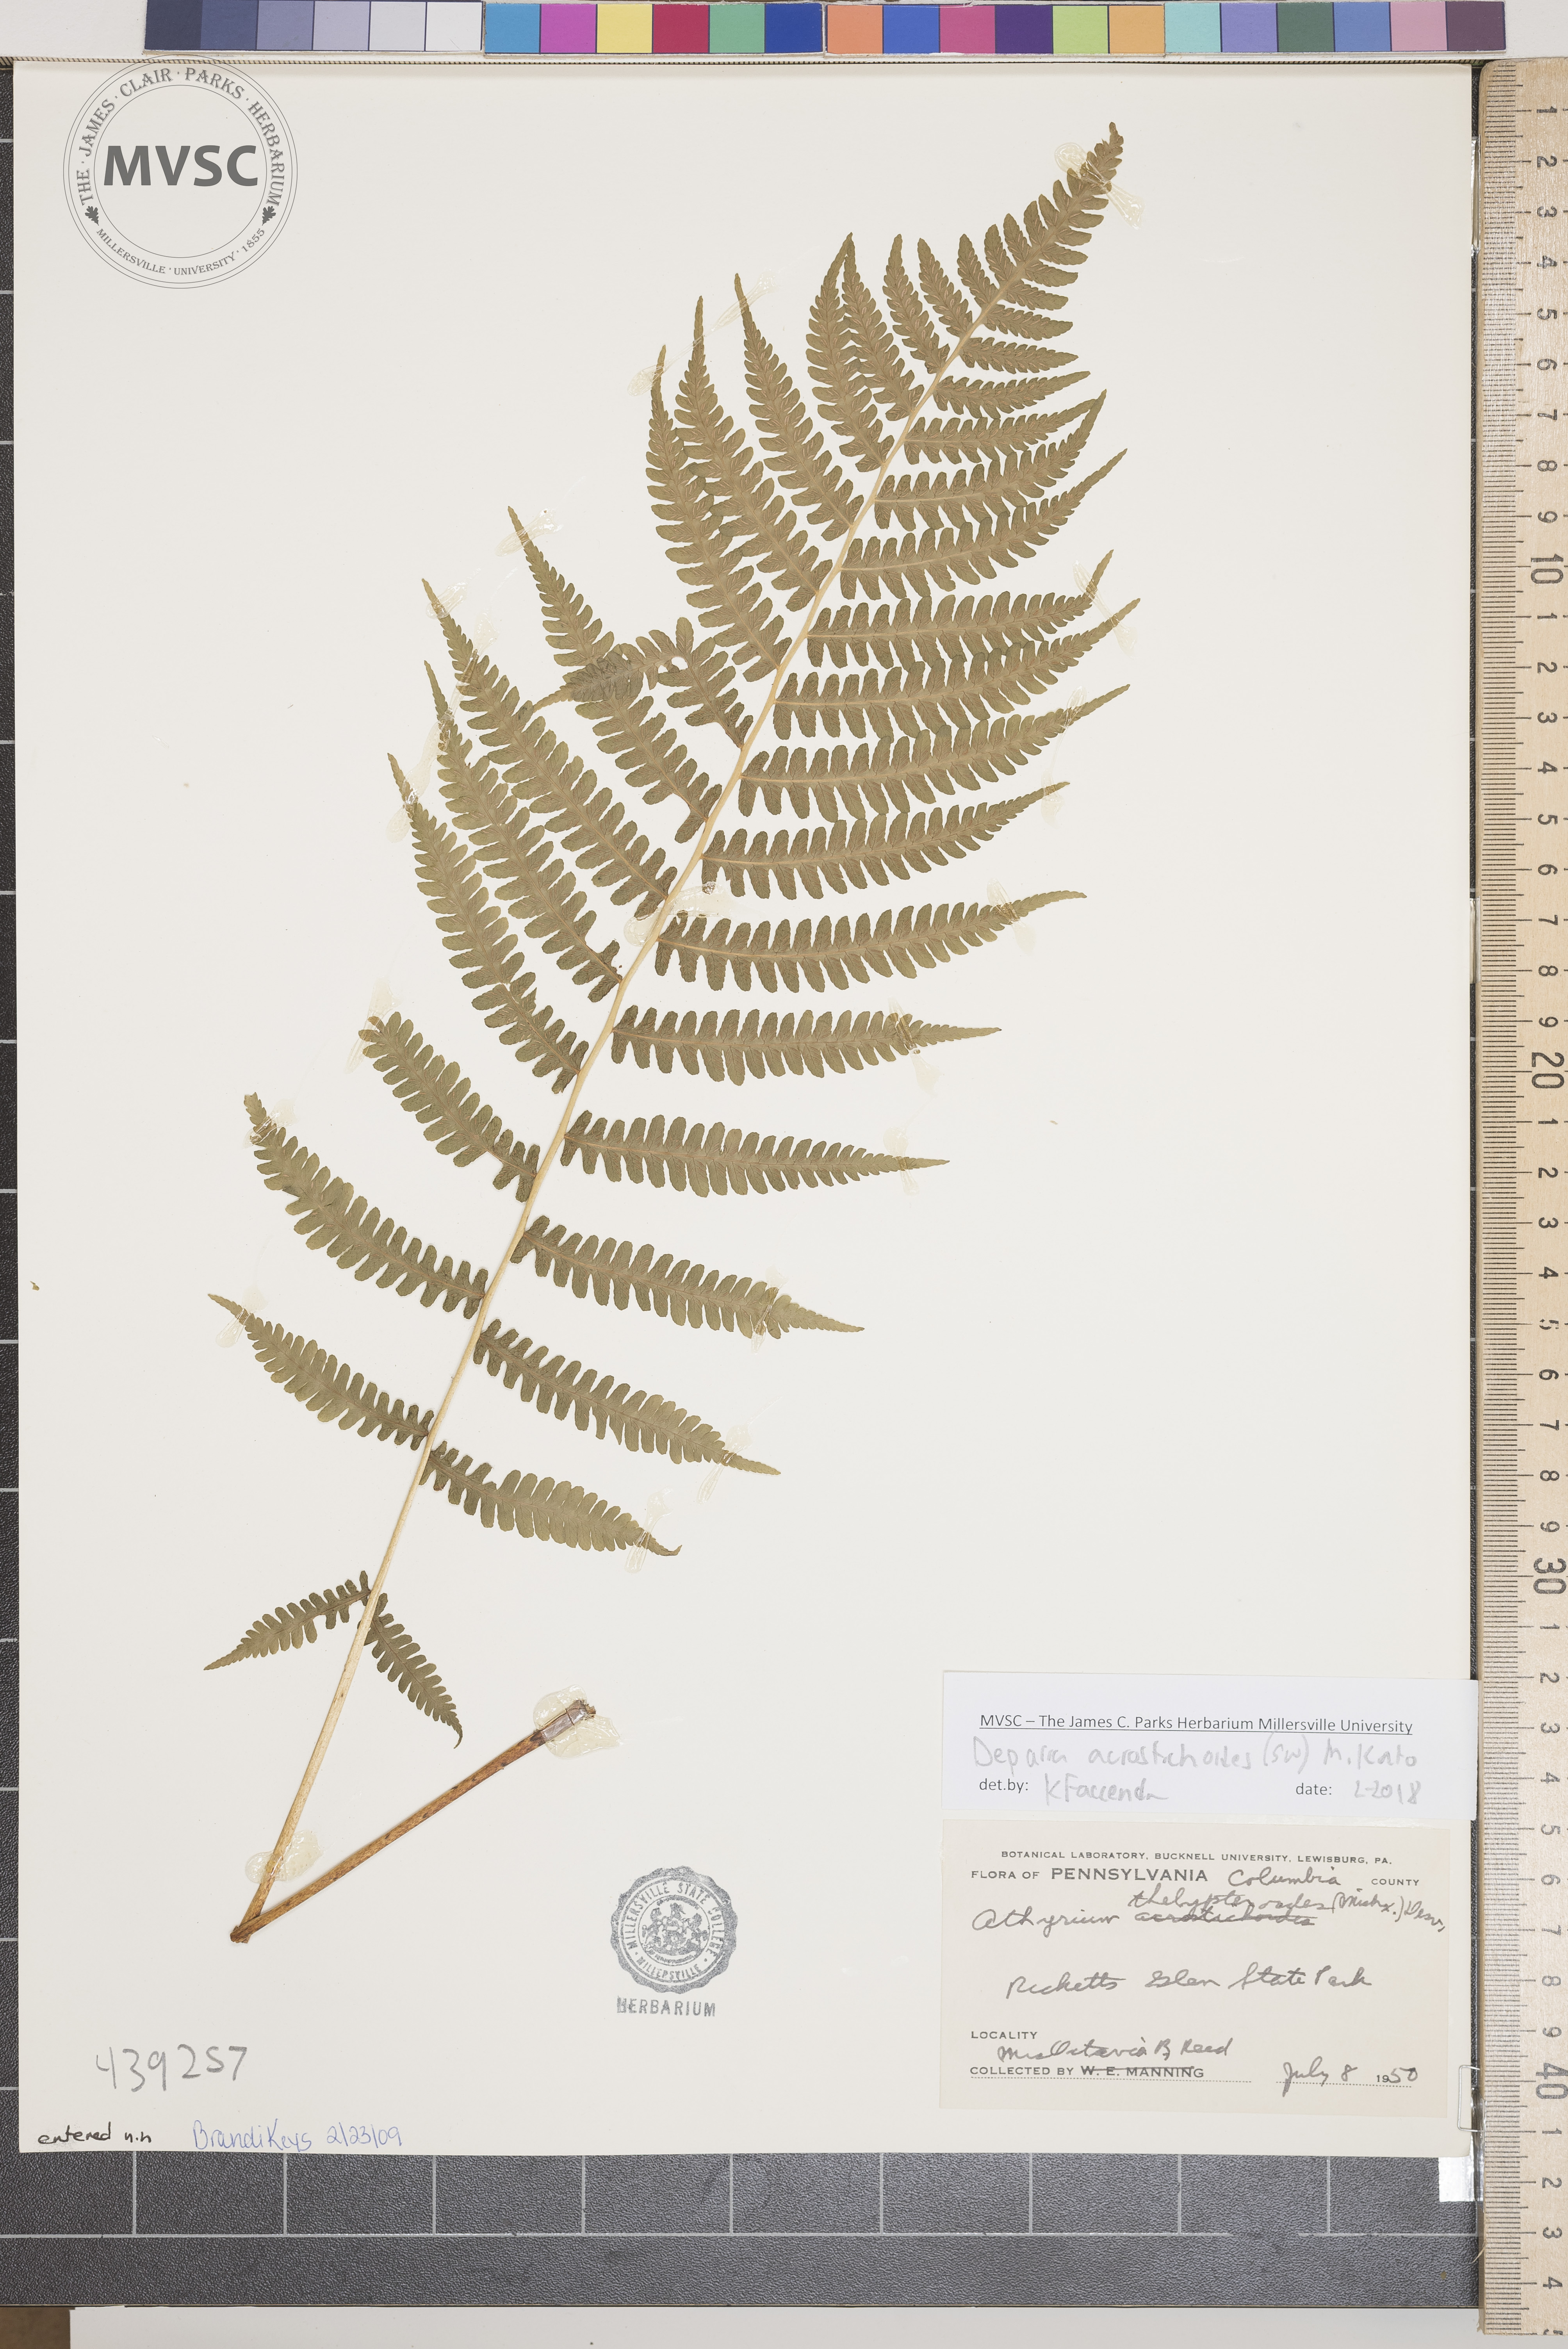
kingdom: Plantae
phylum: Tracheophyta
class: Polypodiopsida
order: Polypodiales
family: Athyriaceae
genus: Deparia
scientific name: Deparia acrostichoides
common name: Silvery Glade fern
